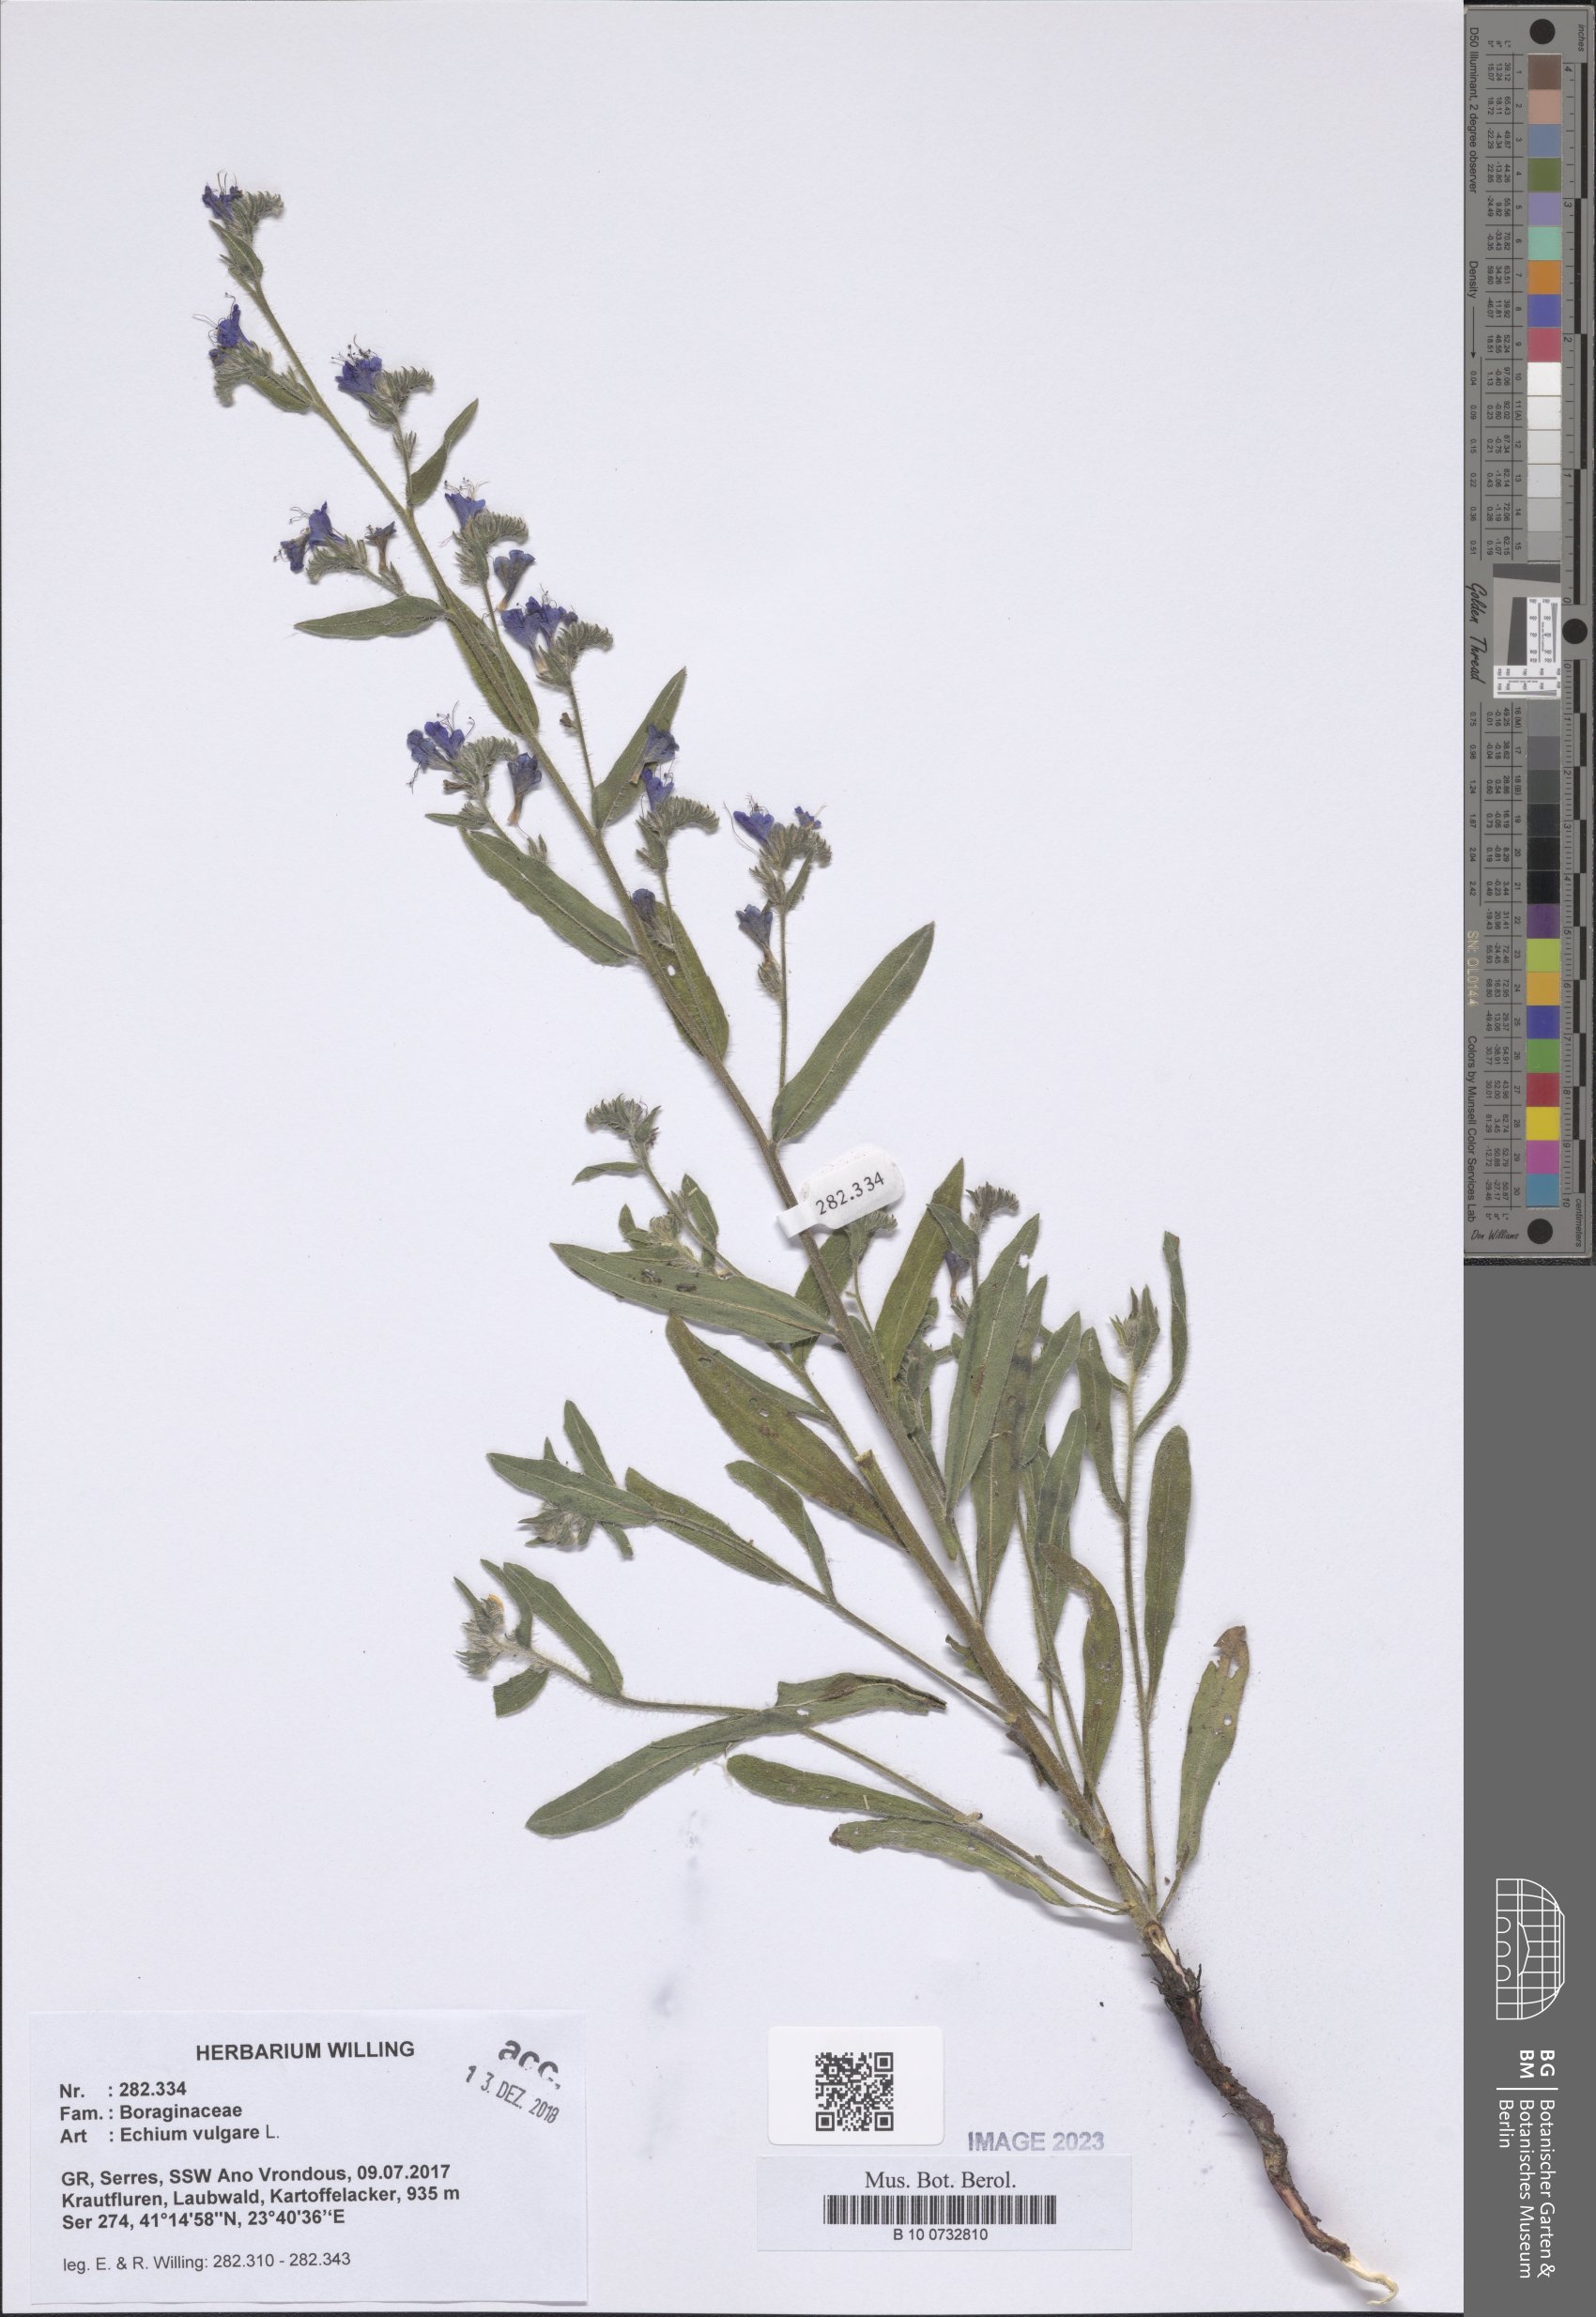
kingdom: Plantae
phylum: Tracheophyta
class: Magnoliopsida
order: Boraginales
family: Boraginaceae
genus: Echium
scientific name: Echium vulgare
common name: Common viper's bugloss
